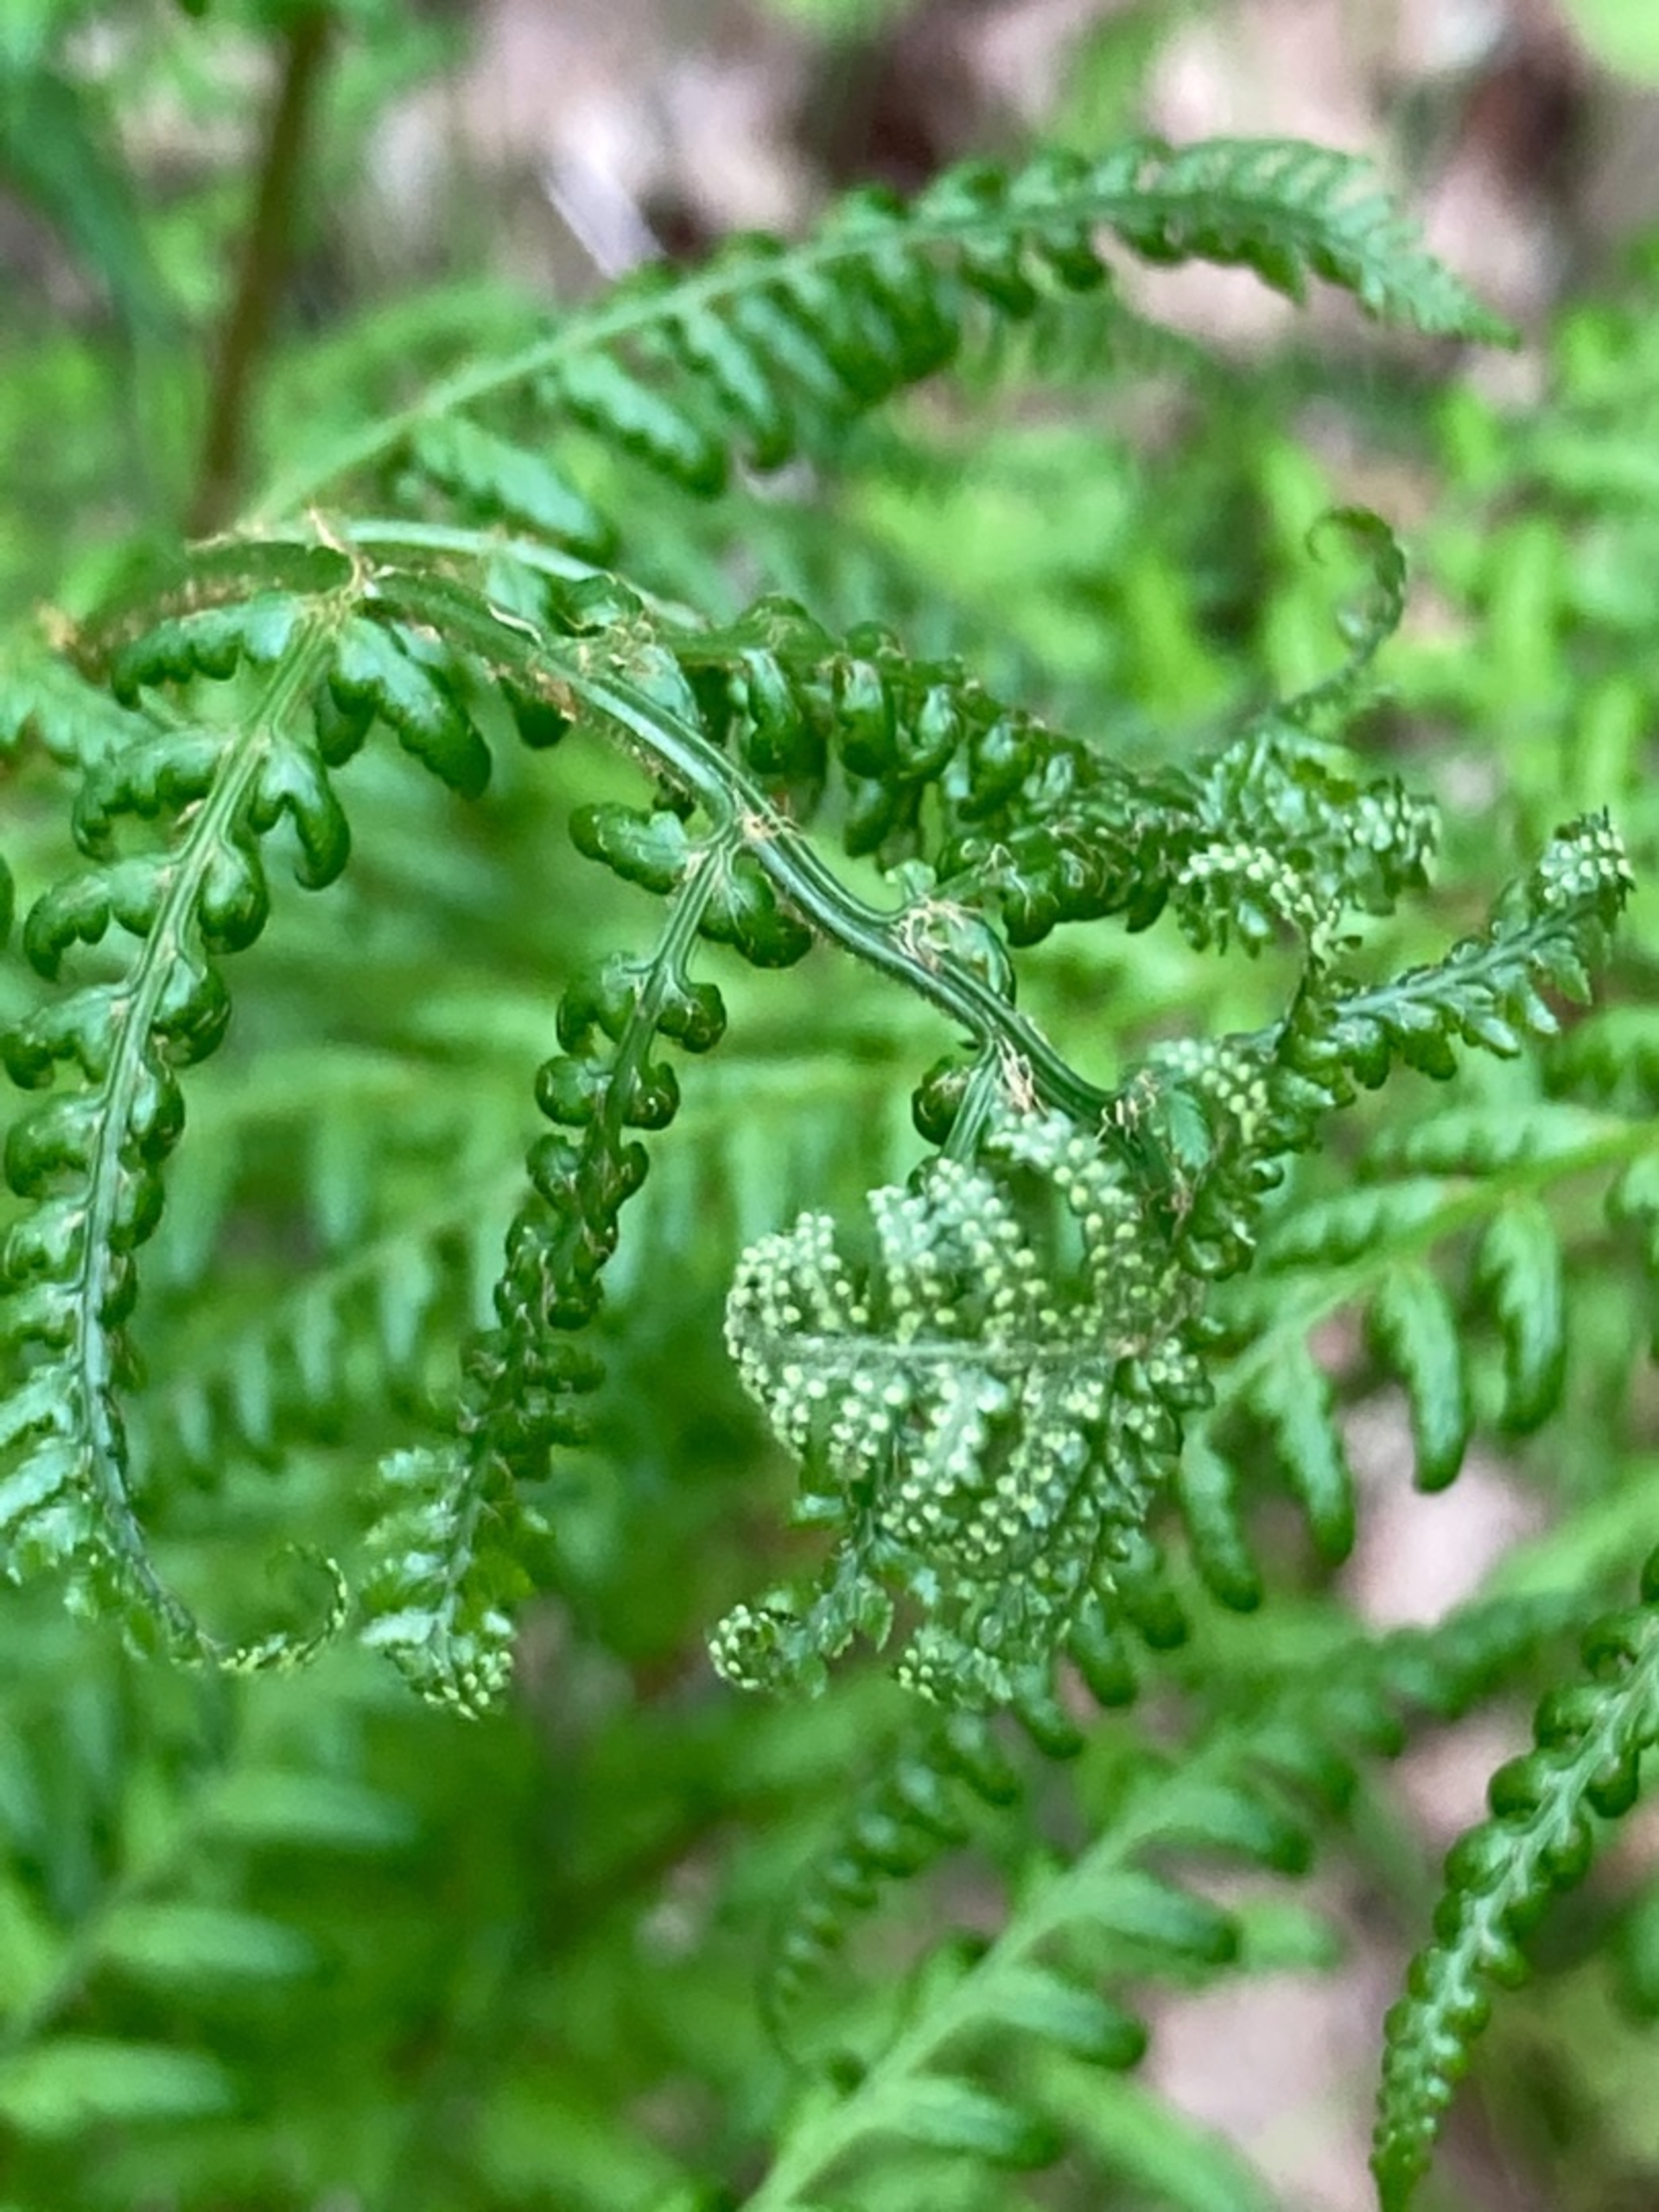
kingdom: Plantae
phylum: Tracheophyta
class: Polypodiopsida
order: Polypodiales
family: Dryopteridaceae
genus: Dryopteris
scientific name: Dryopteris dilatata
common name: Bredbladet mangeløv
